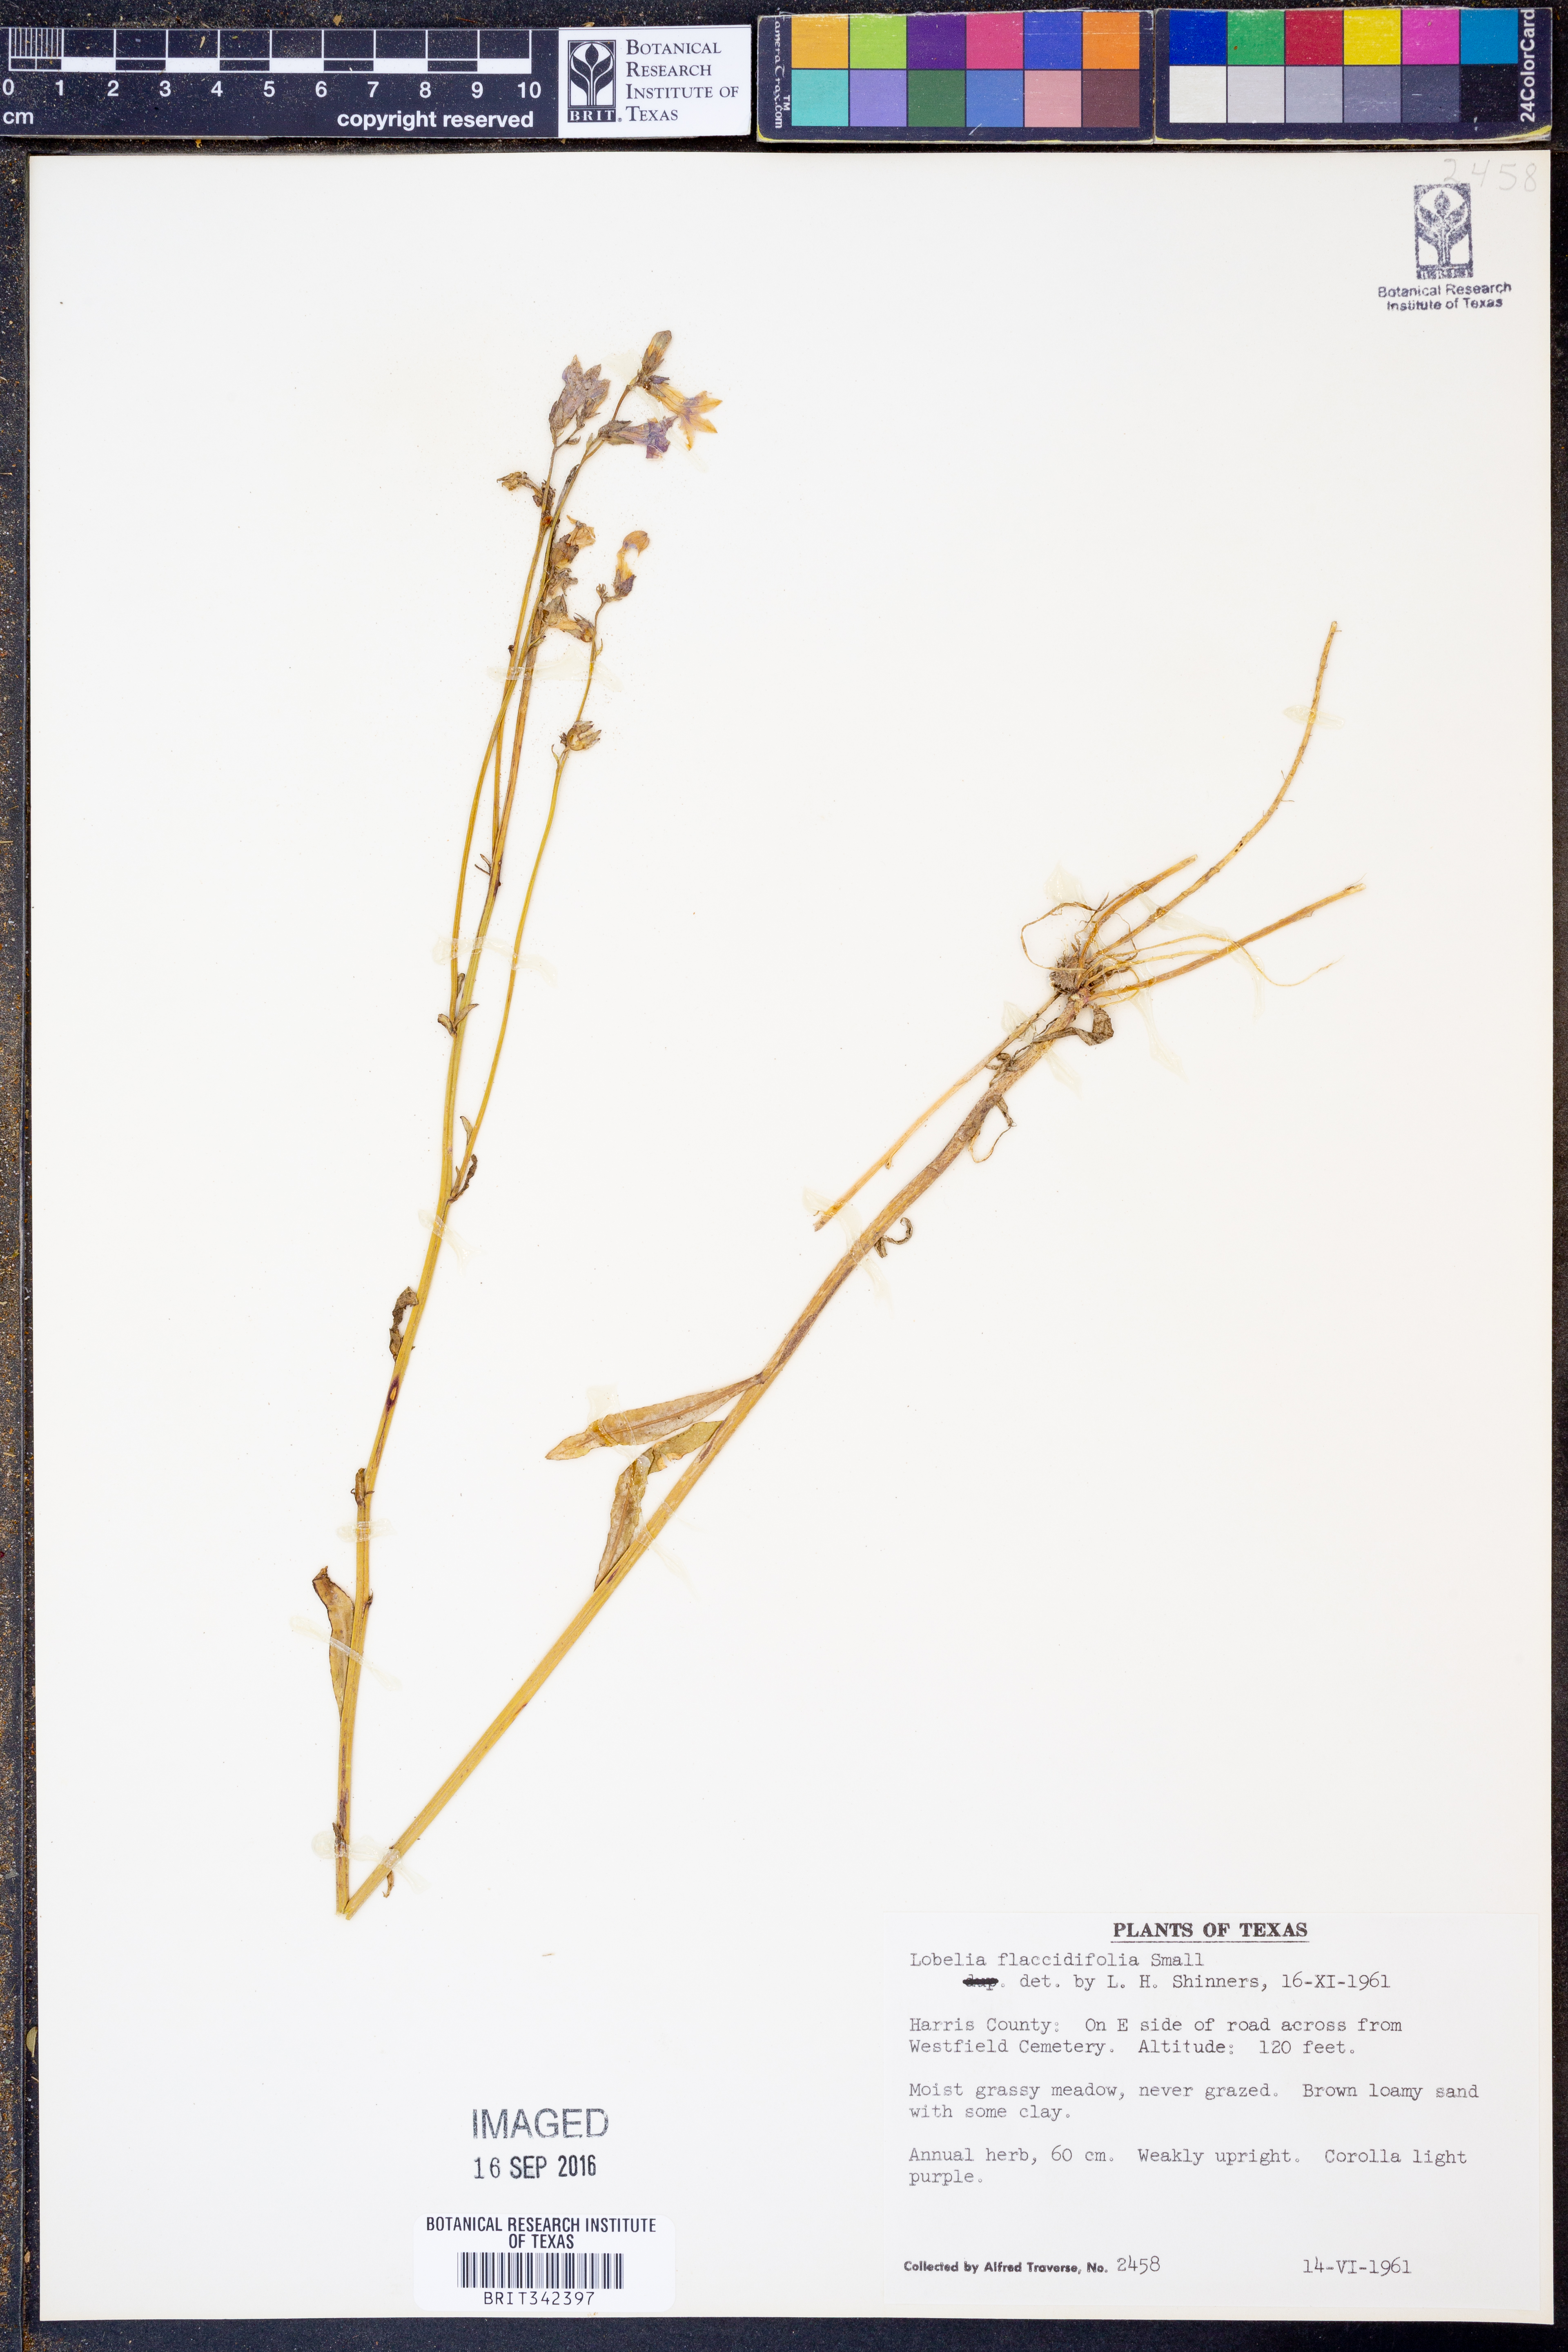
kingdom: Plantae
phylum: Tracheophyta
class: Magnoliopsida
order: Asterales
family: Campanulaceae
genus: Lobelia
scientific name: Lobelia flaccidifolia
